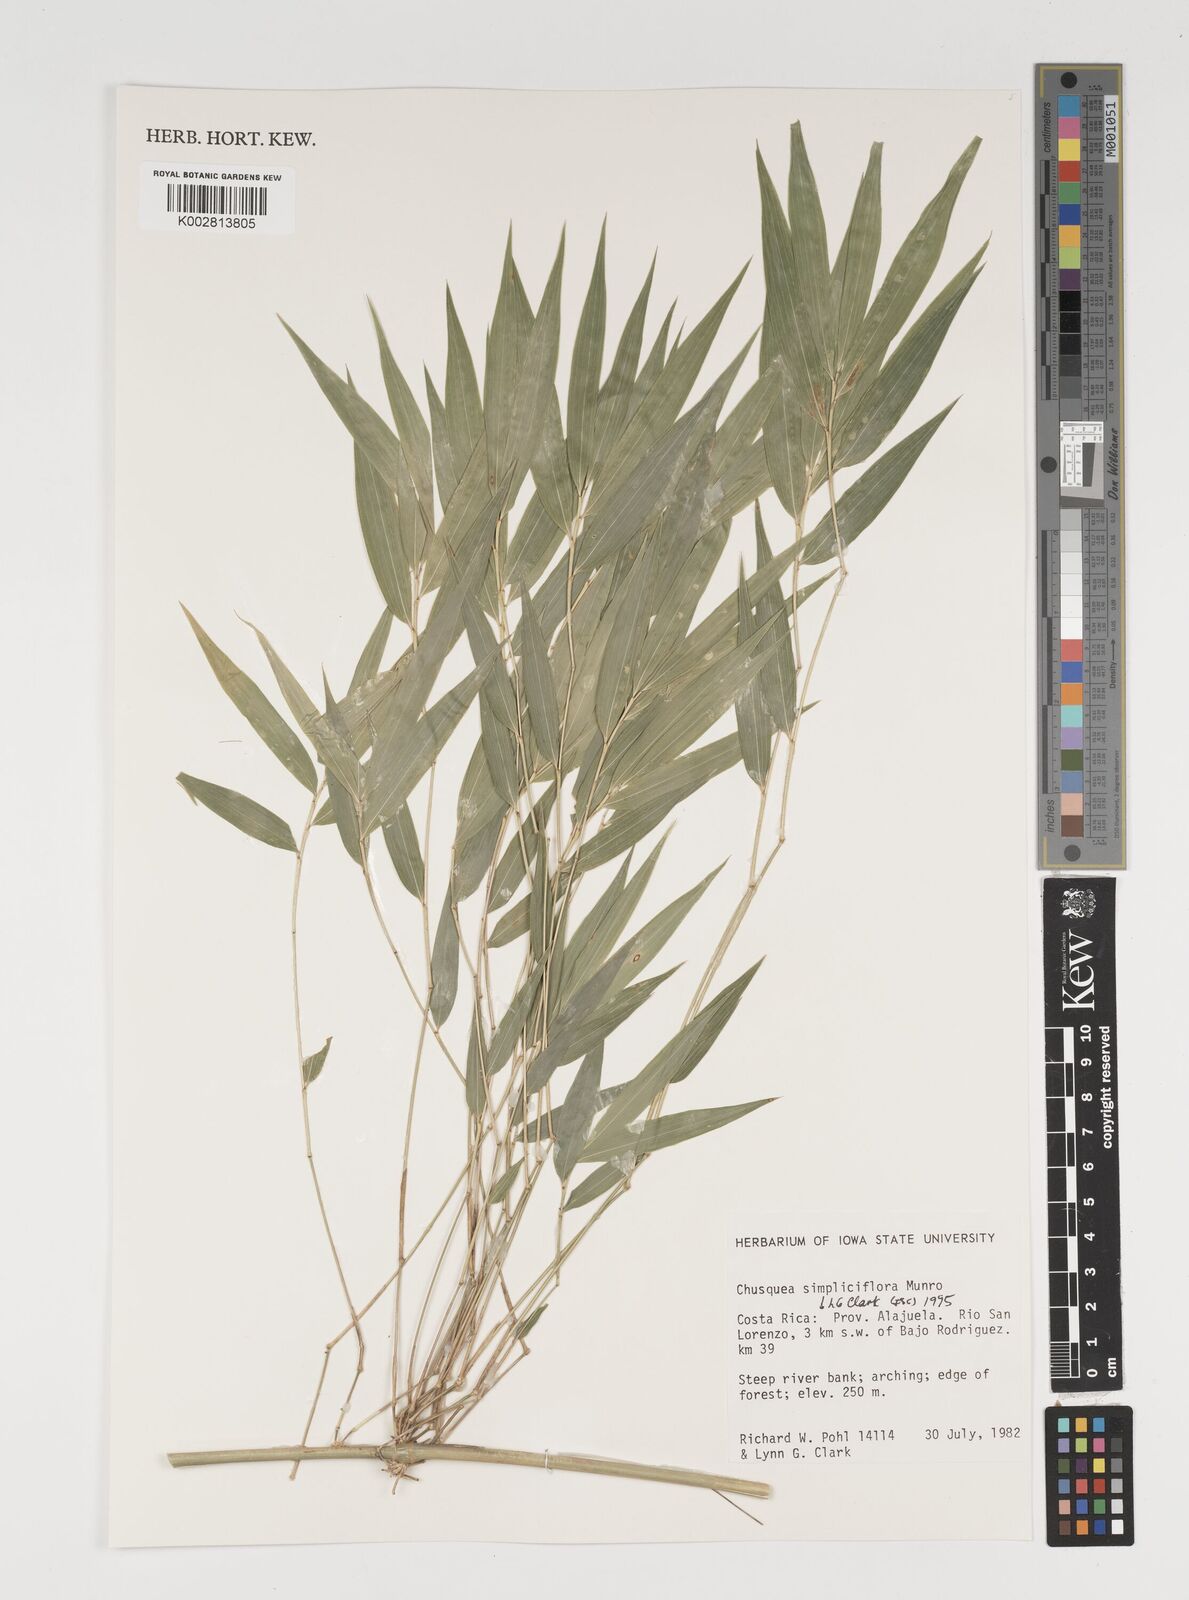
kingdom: Plantae
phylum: Tracheophyta
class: Liliopsida
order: Poales
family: Poaceae
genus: Chusquea
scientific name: Chusquea simpliciflora
